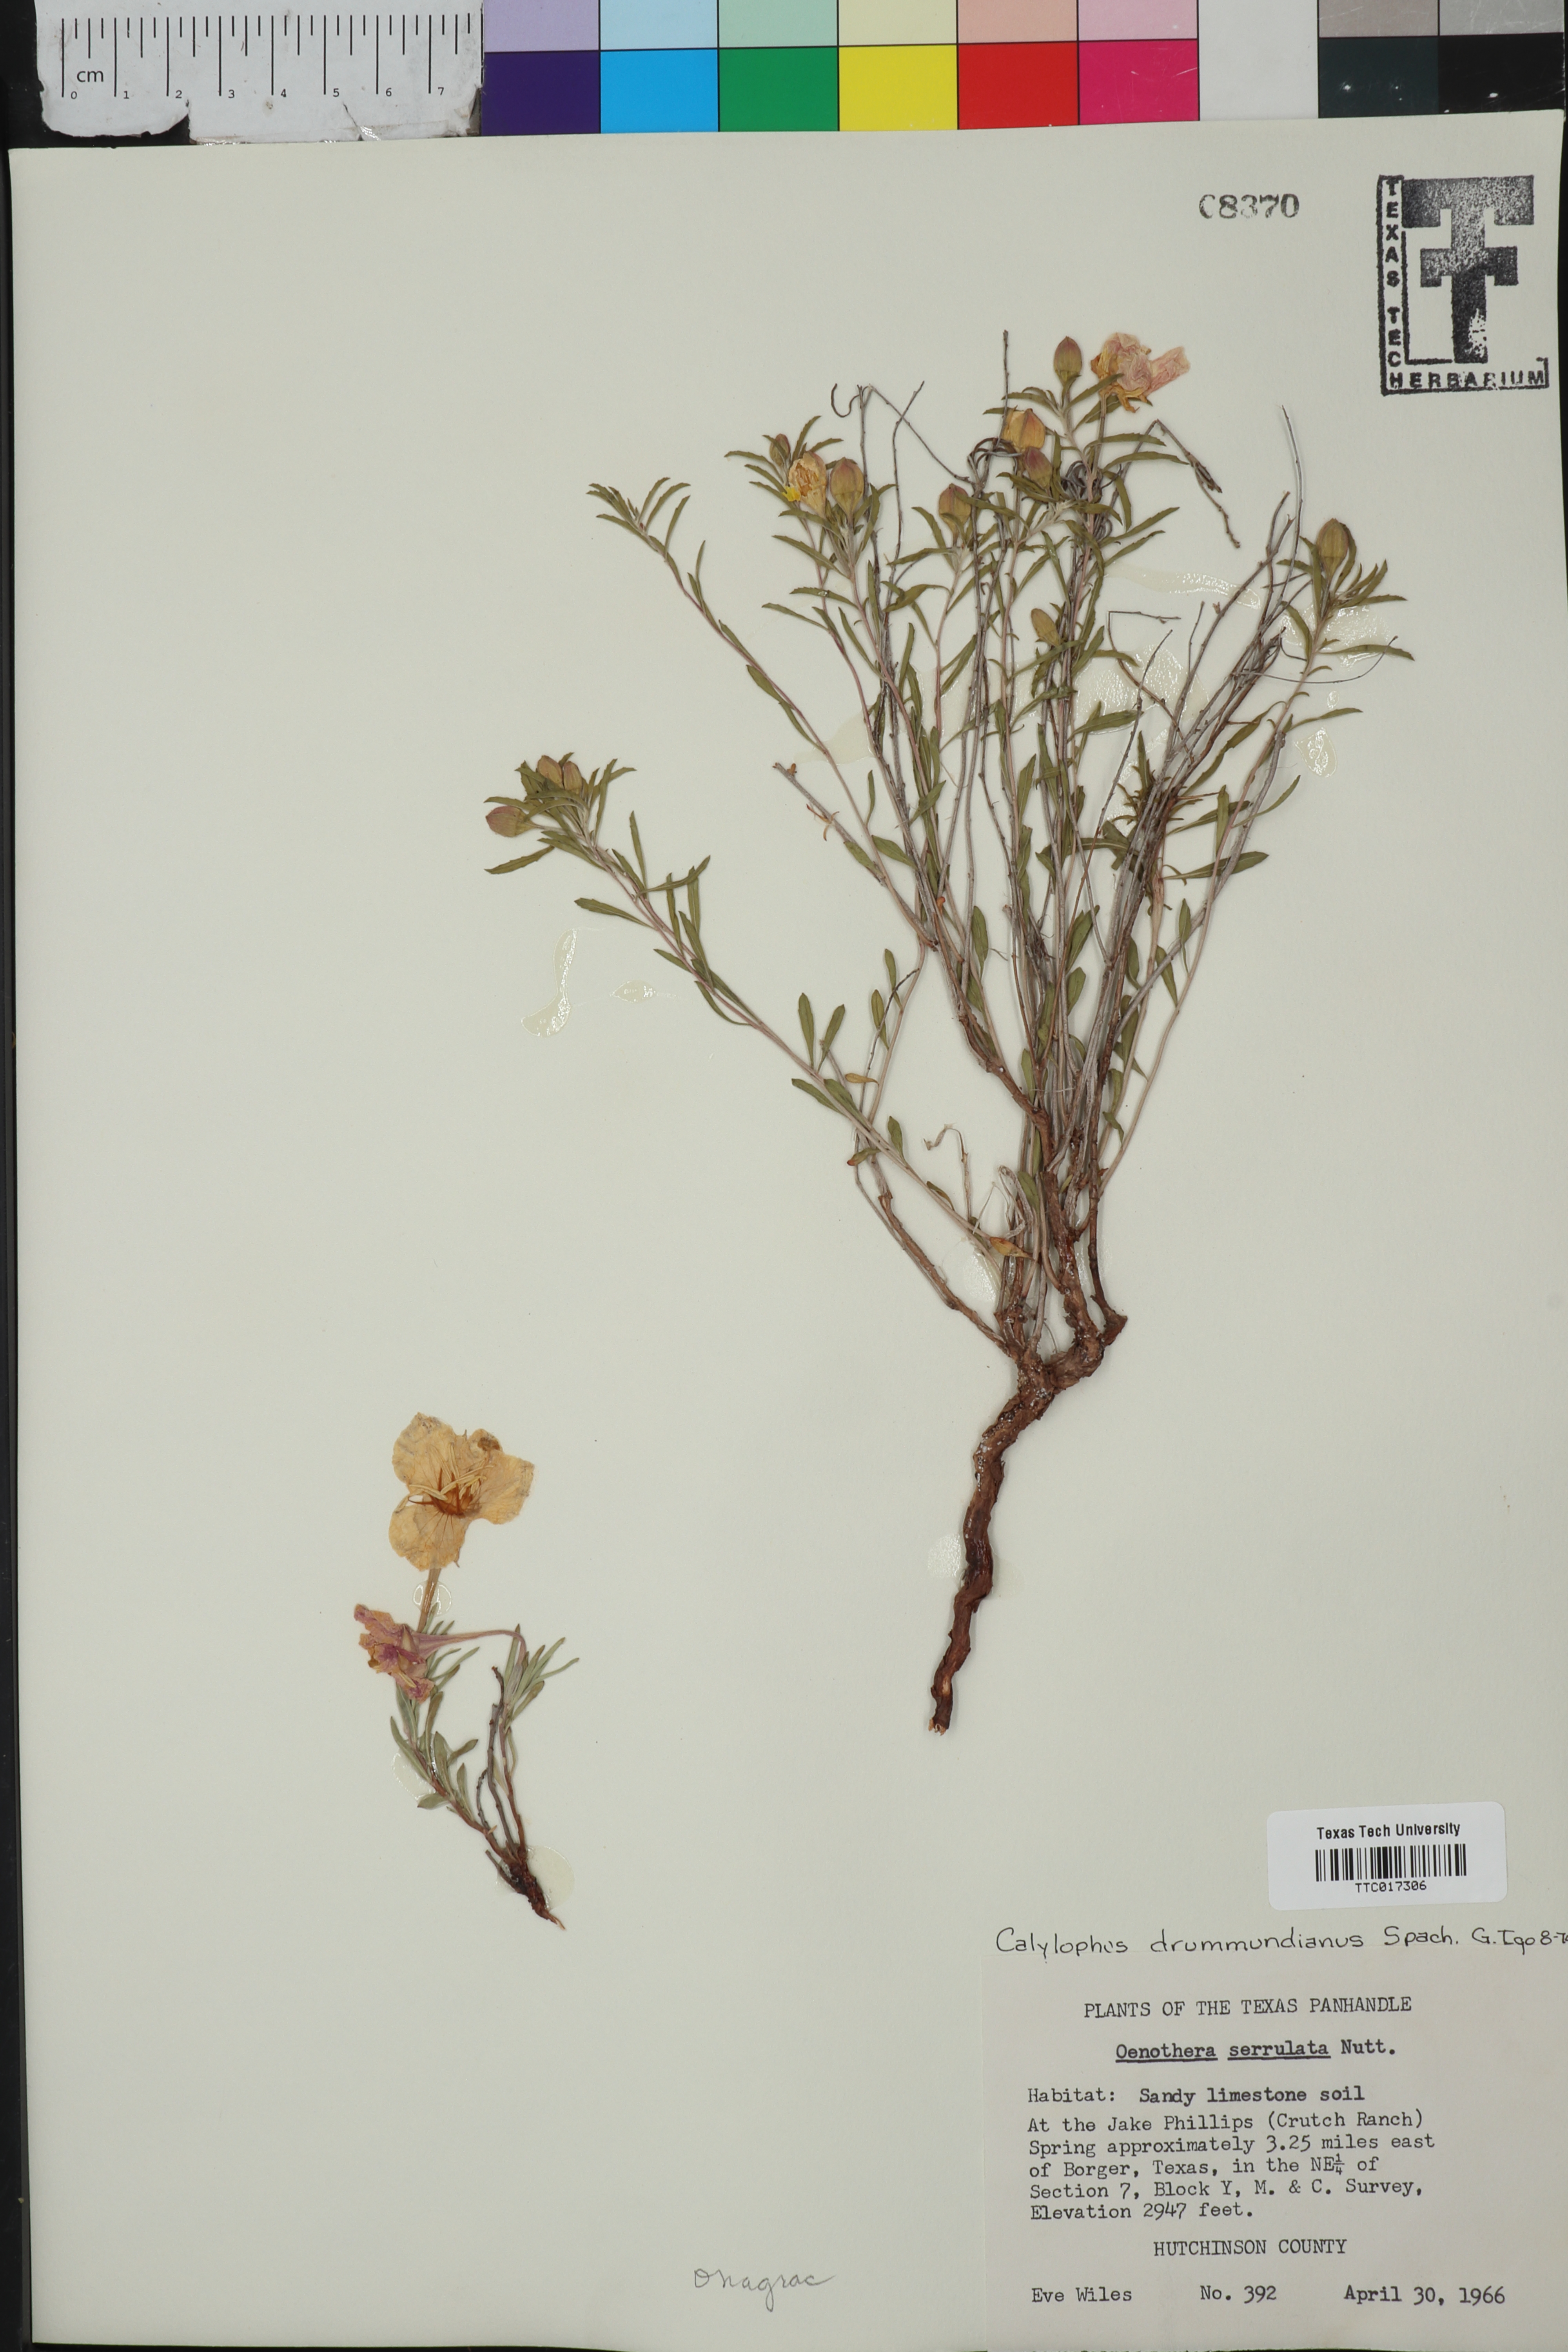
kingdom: Plantae
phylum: Tracheophyta
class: Magnoliopsida
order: Myrtales
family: Onagraceae
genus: Oenothera
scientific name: Oenothera serrulata
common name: Half-shrub calylophus
